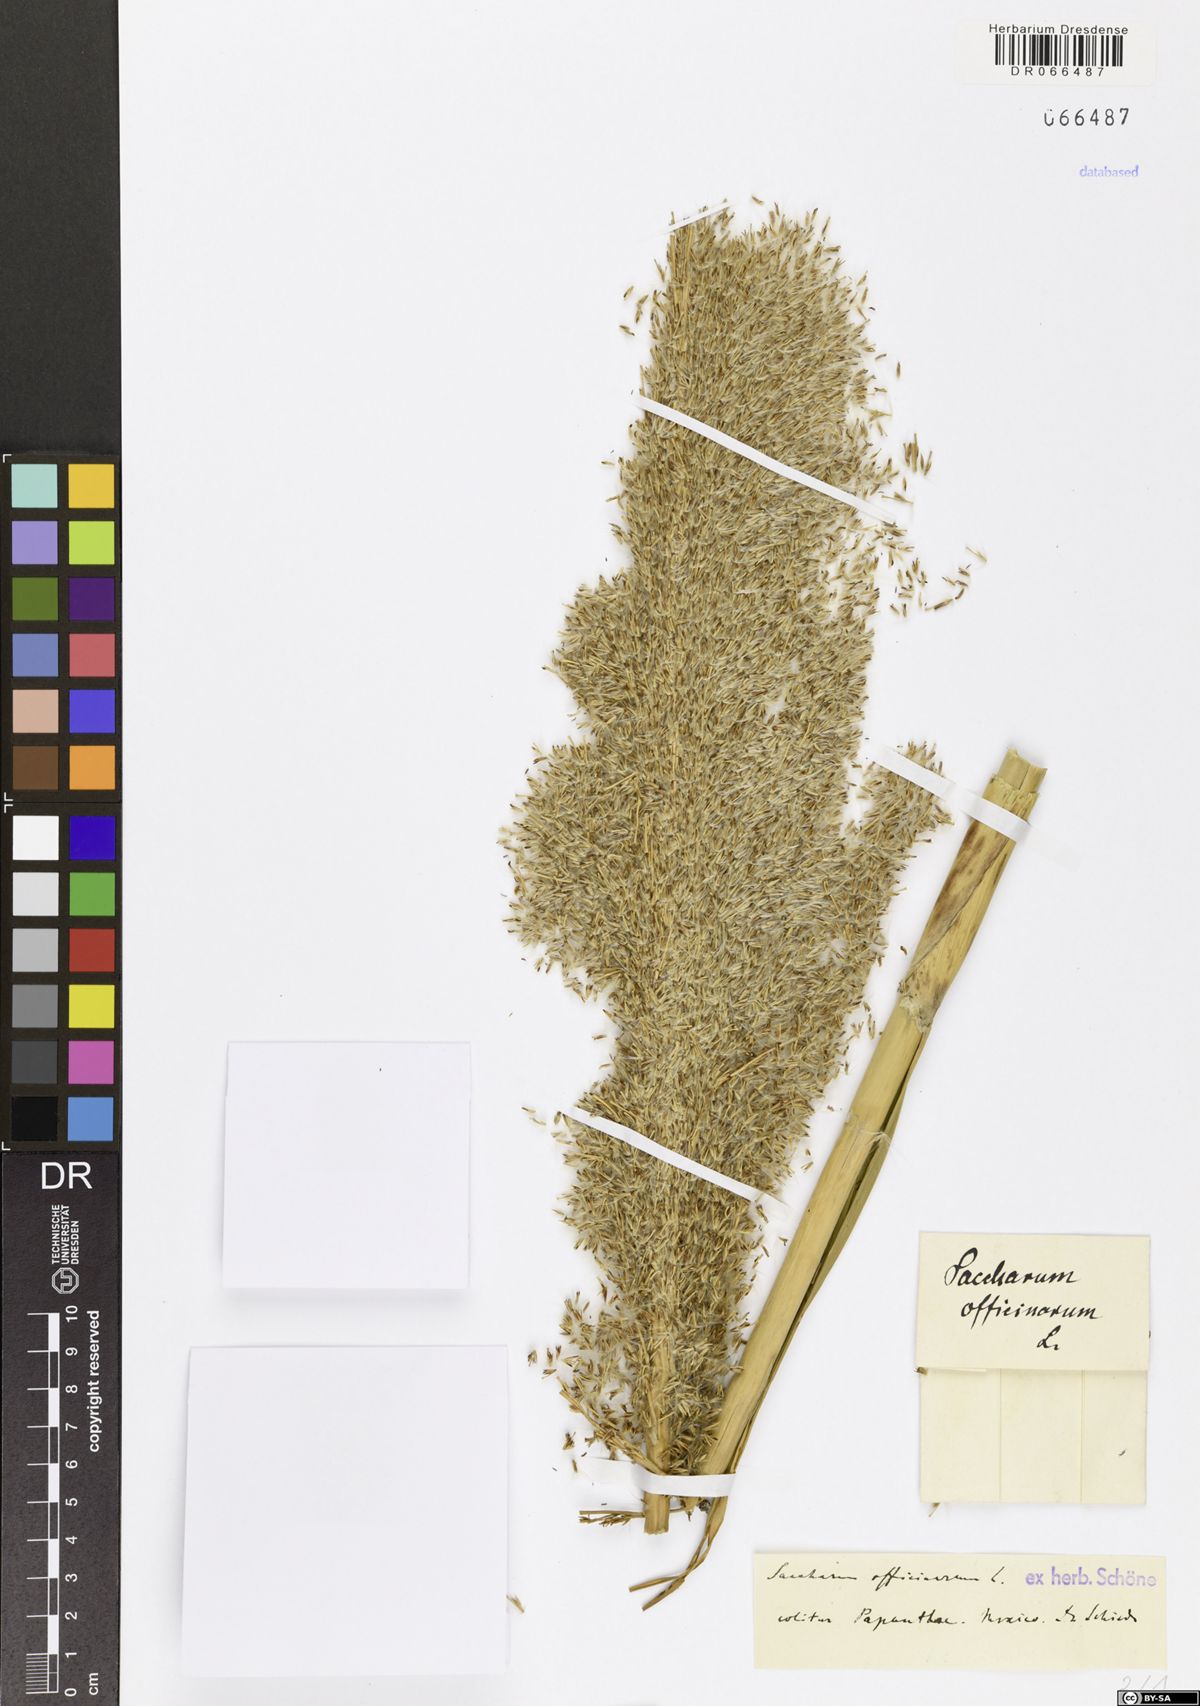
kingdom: Plantae
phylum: Tracheophyta
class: Liliopsida
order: Poales
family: Poaceae
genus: Saccharum
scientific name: Saccharum officinarum
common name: Sugarcane
